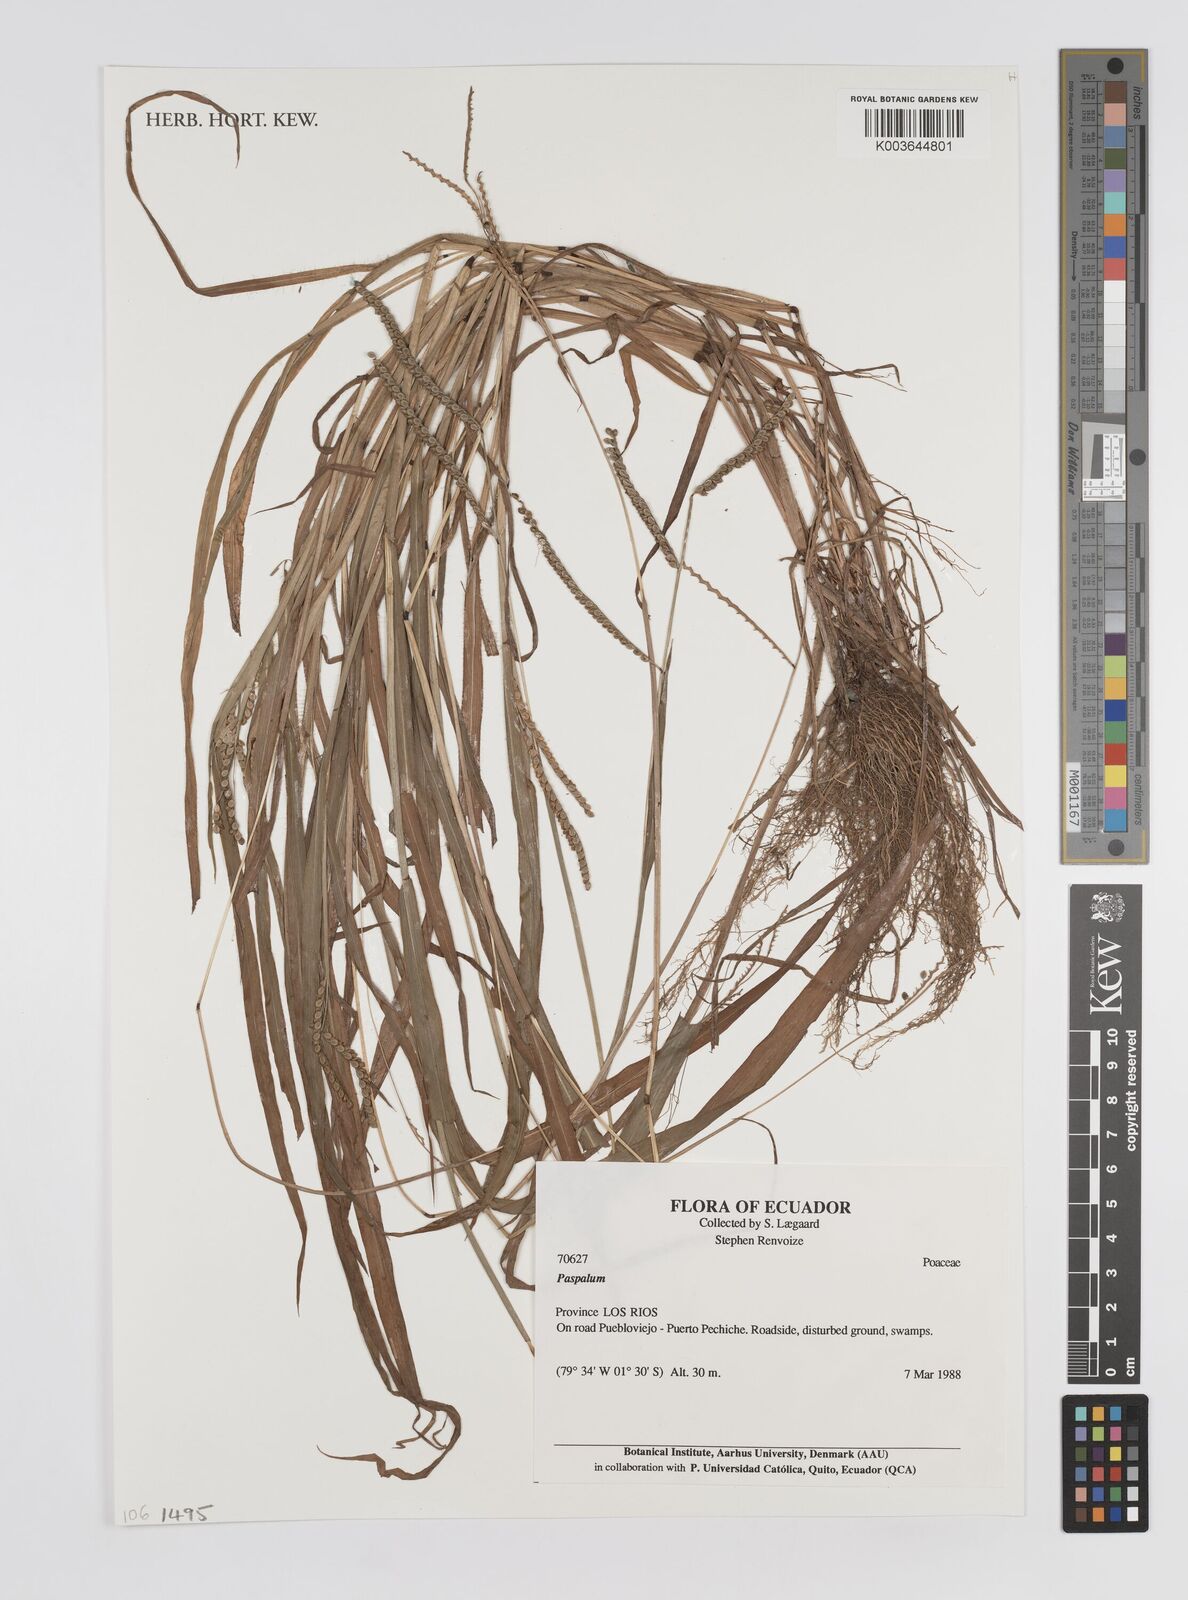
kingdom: Plantae
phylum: Tracheophyta
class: Liliopsida
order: Poales
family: Poaceae
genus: Paspalum
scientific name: Paspalum
